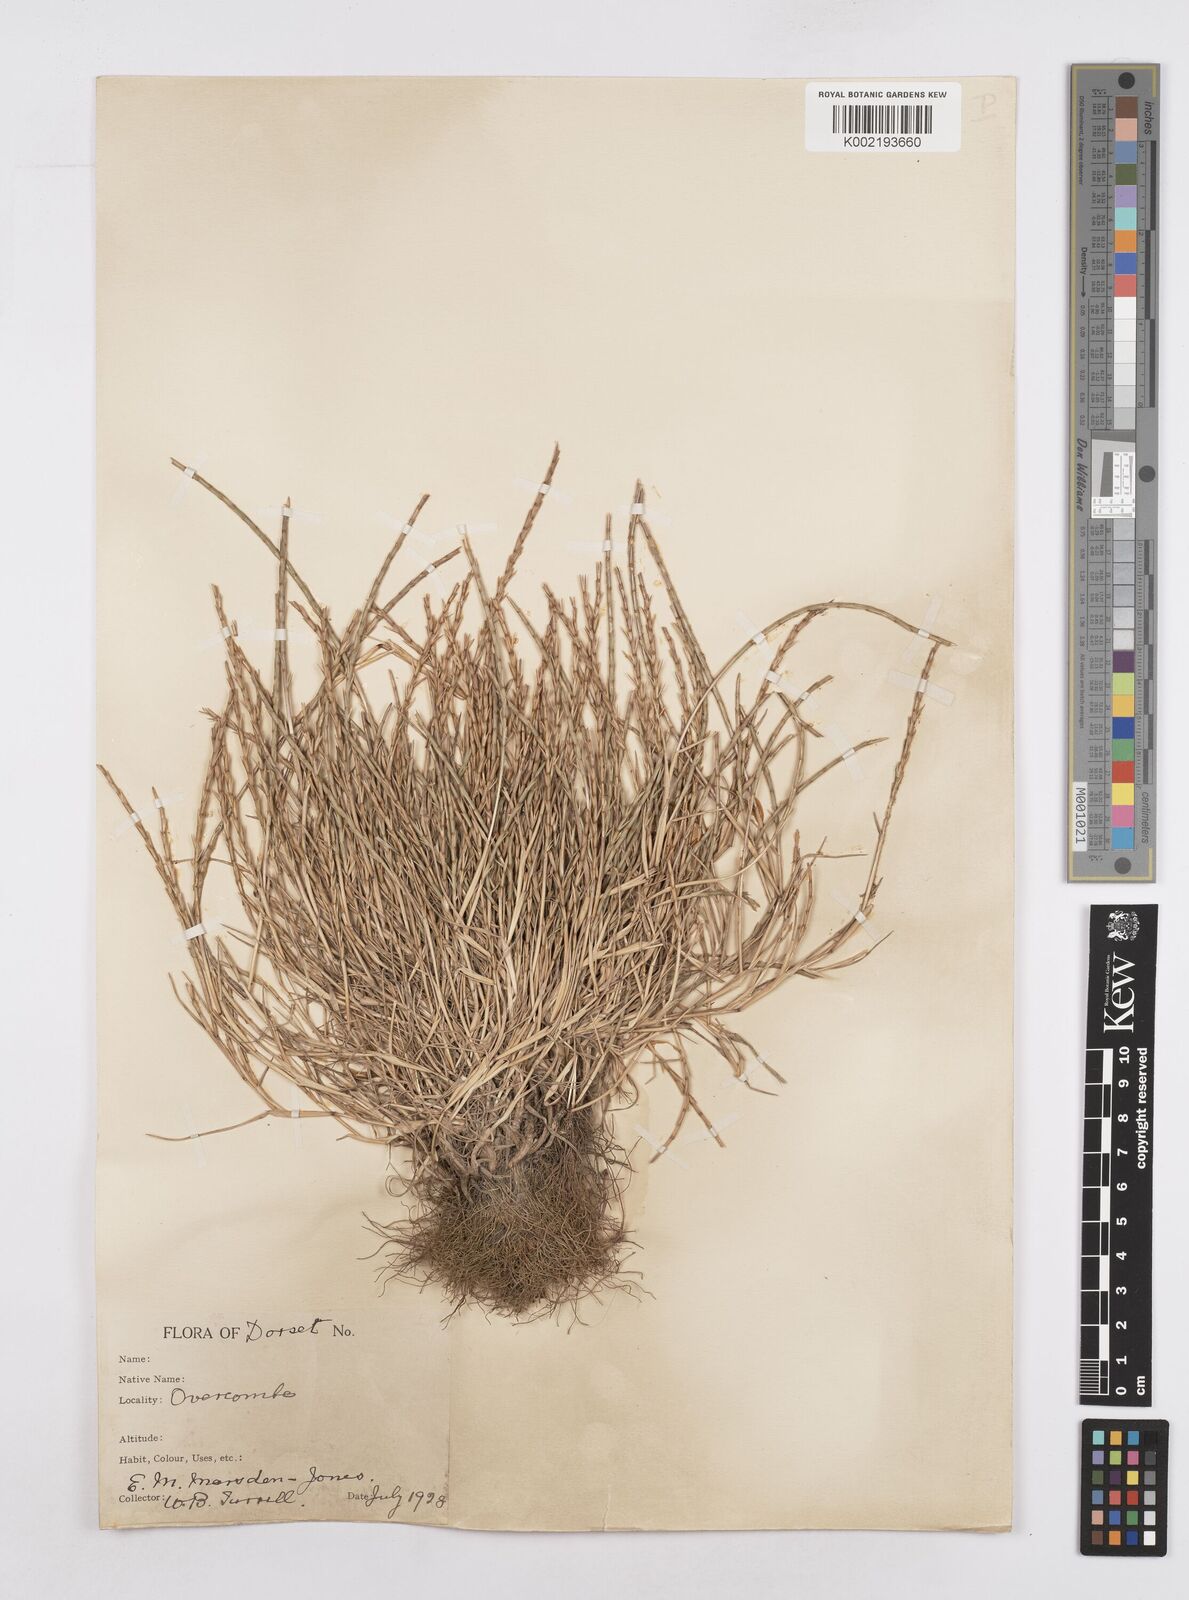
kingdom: Plantae
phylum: Tracheophyta
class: Liliopsida
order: Poales
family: Poaceae
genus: Parapholis
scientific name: Parapholis strigosa
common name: Hard-grass
